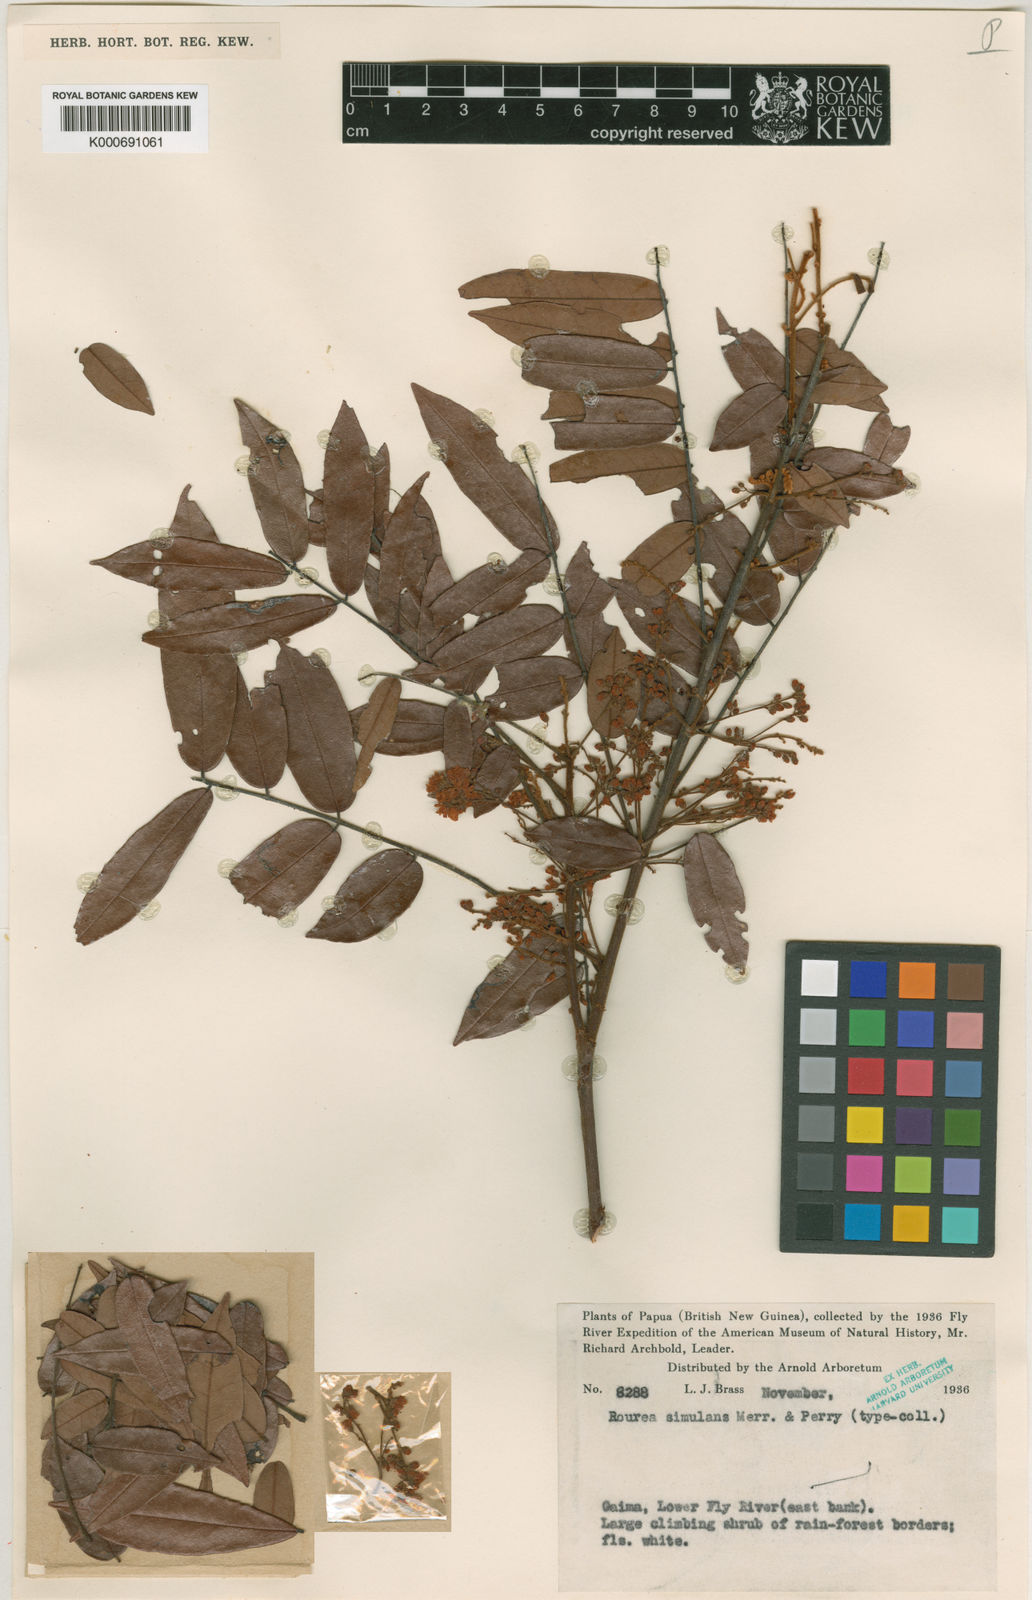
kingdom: Plantae
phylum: Tracheophyta
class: Magnoliopsida
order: Oxalidales
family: Connaraceae
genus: Rourea
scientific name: Rourea radlkoferiana
